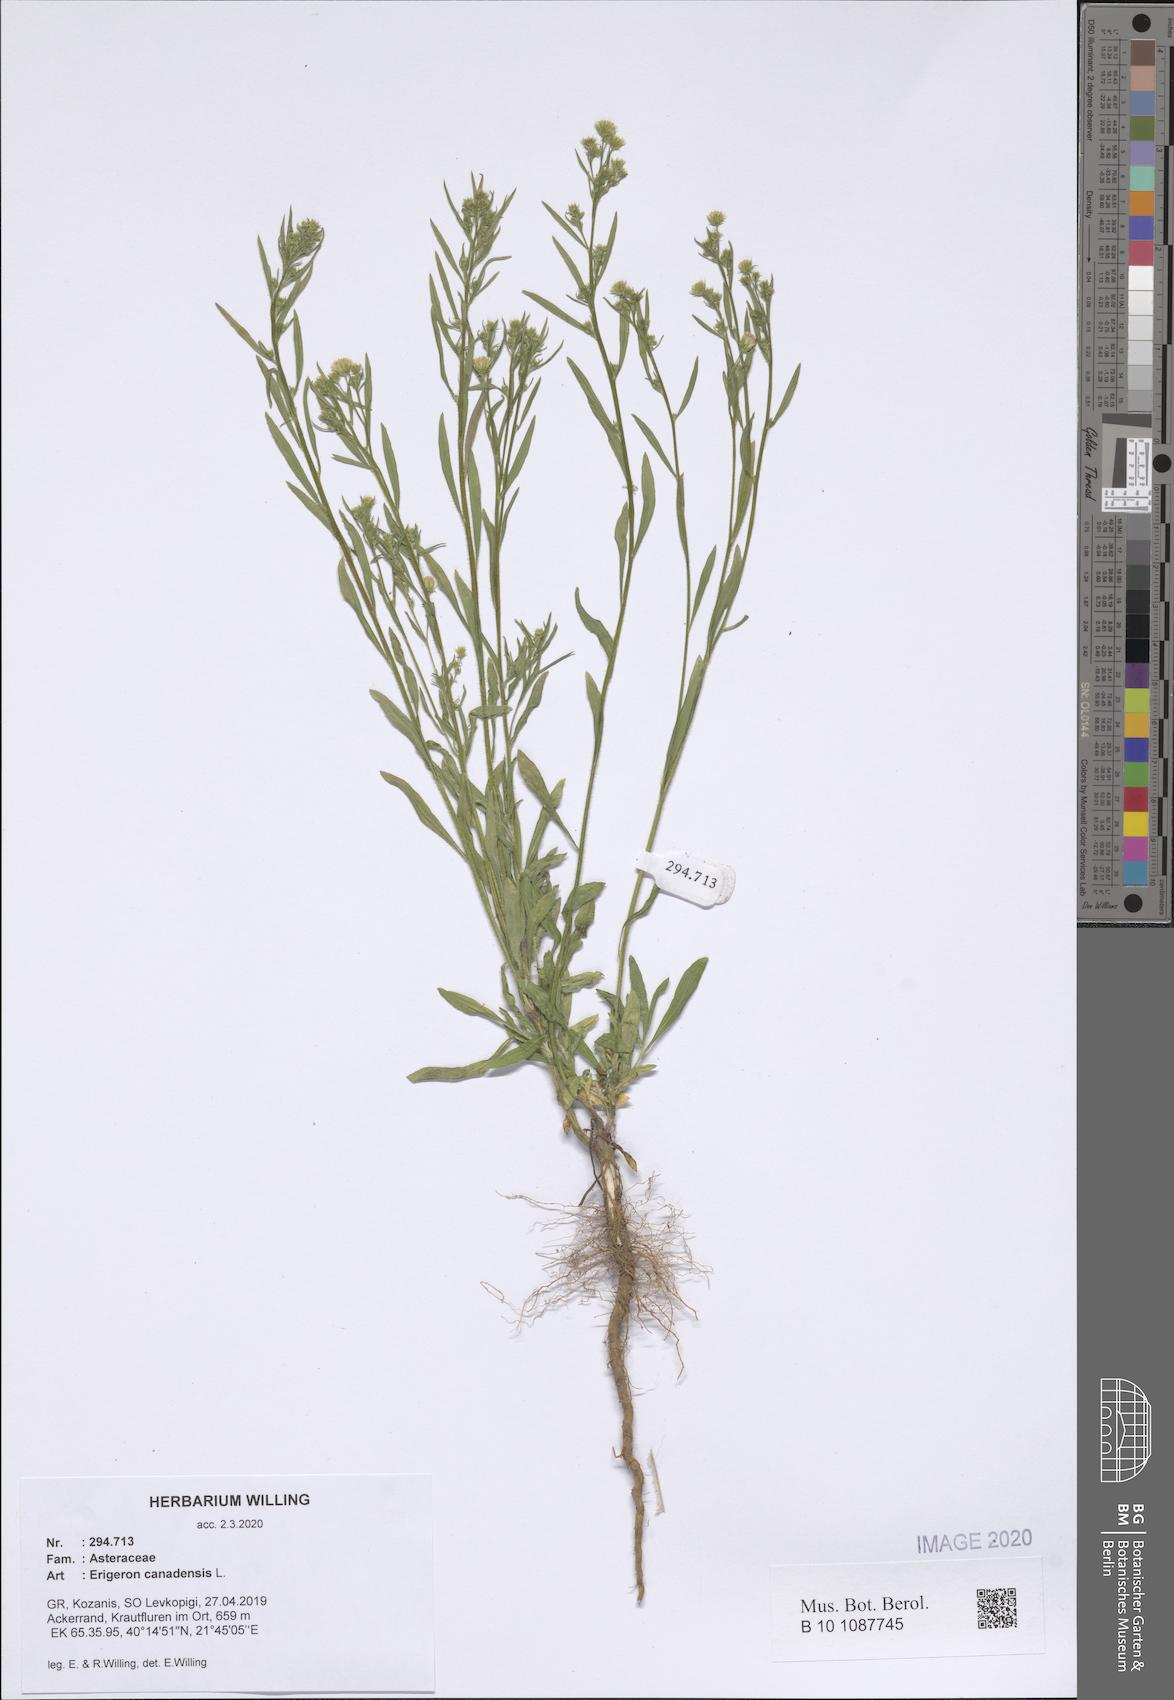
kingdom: Plantae
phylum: Tracheophyta
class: Magnoliopsida
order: Asterales
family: Asteraceae
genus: Erigeron
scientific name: Erigeron canadensis
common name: Canadian fleabane
